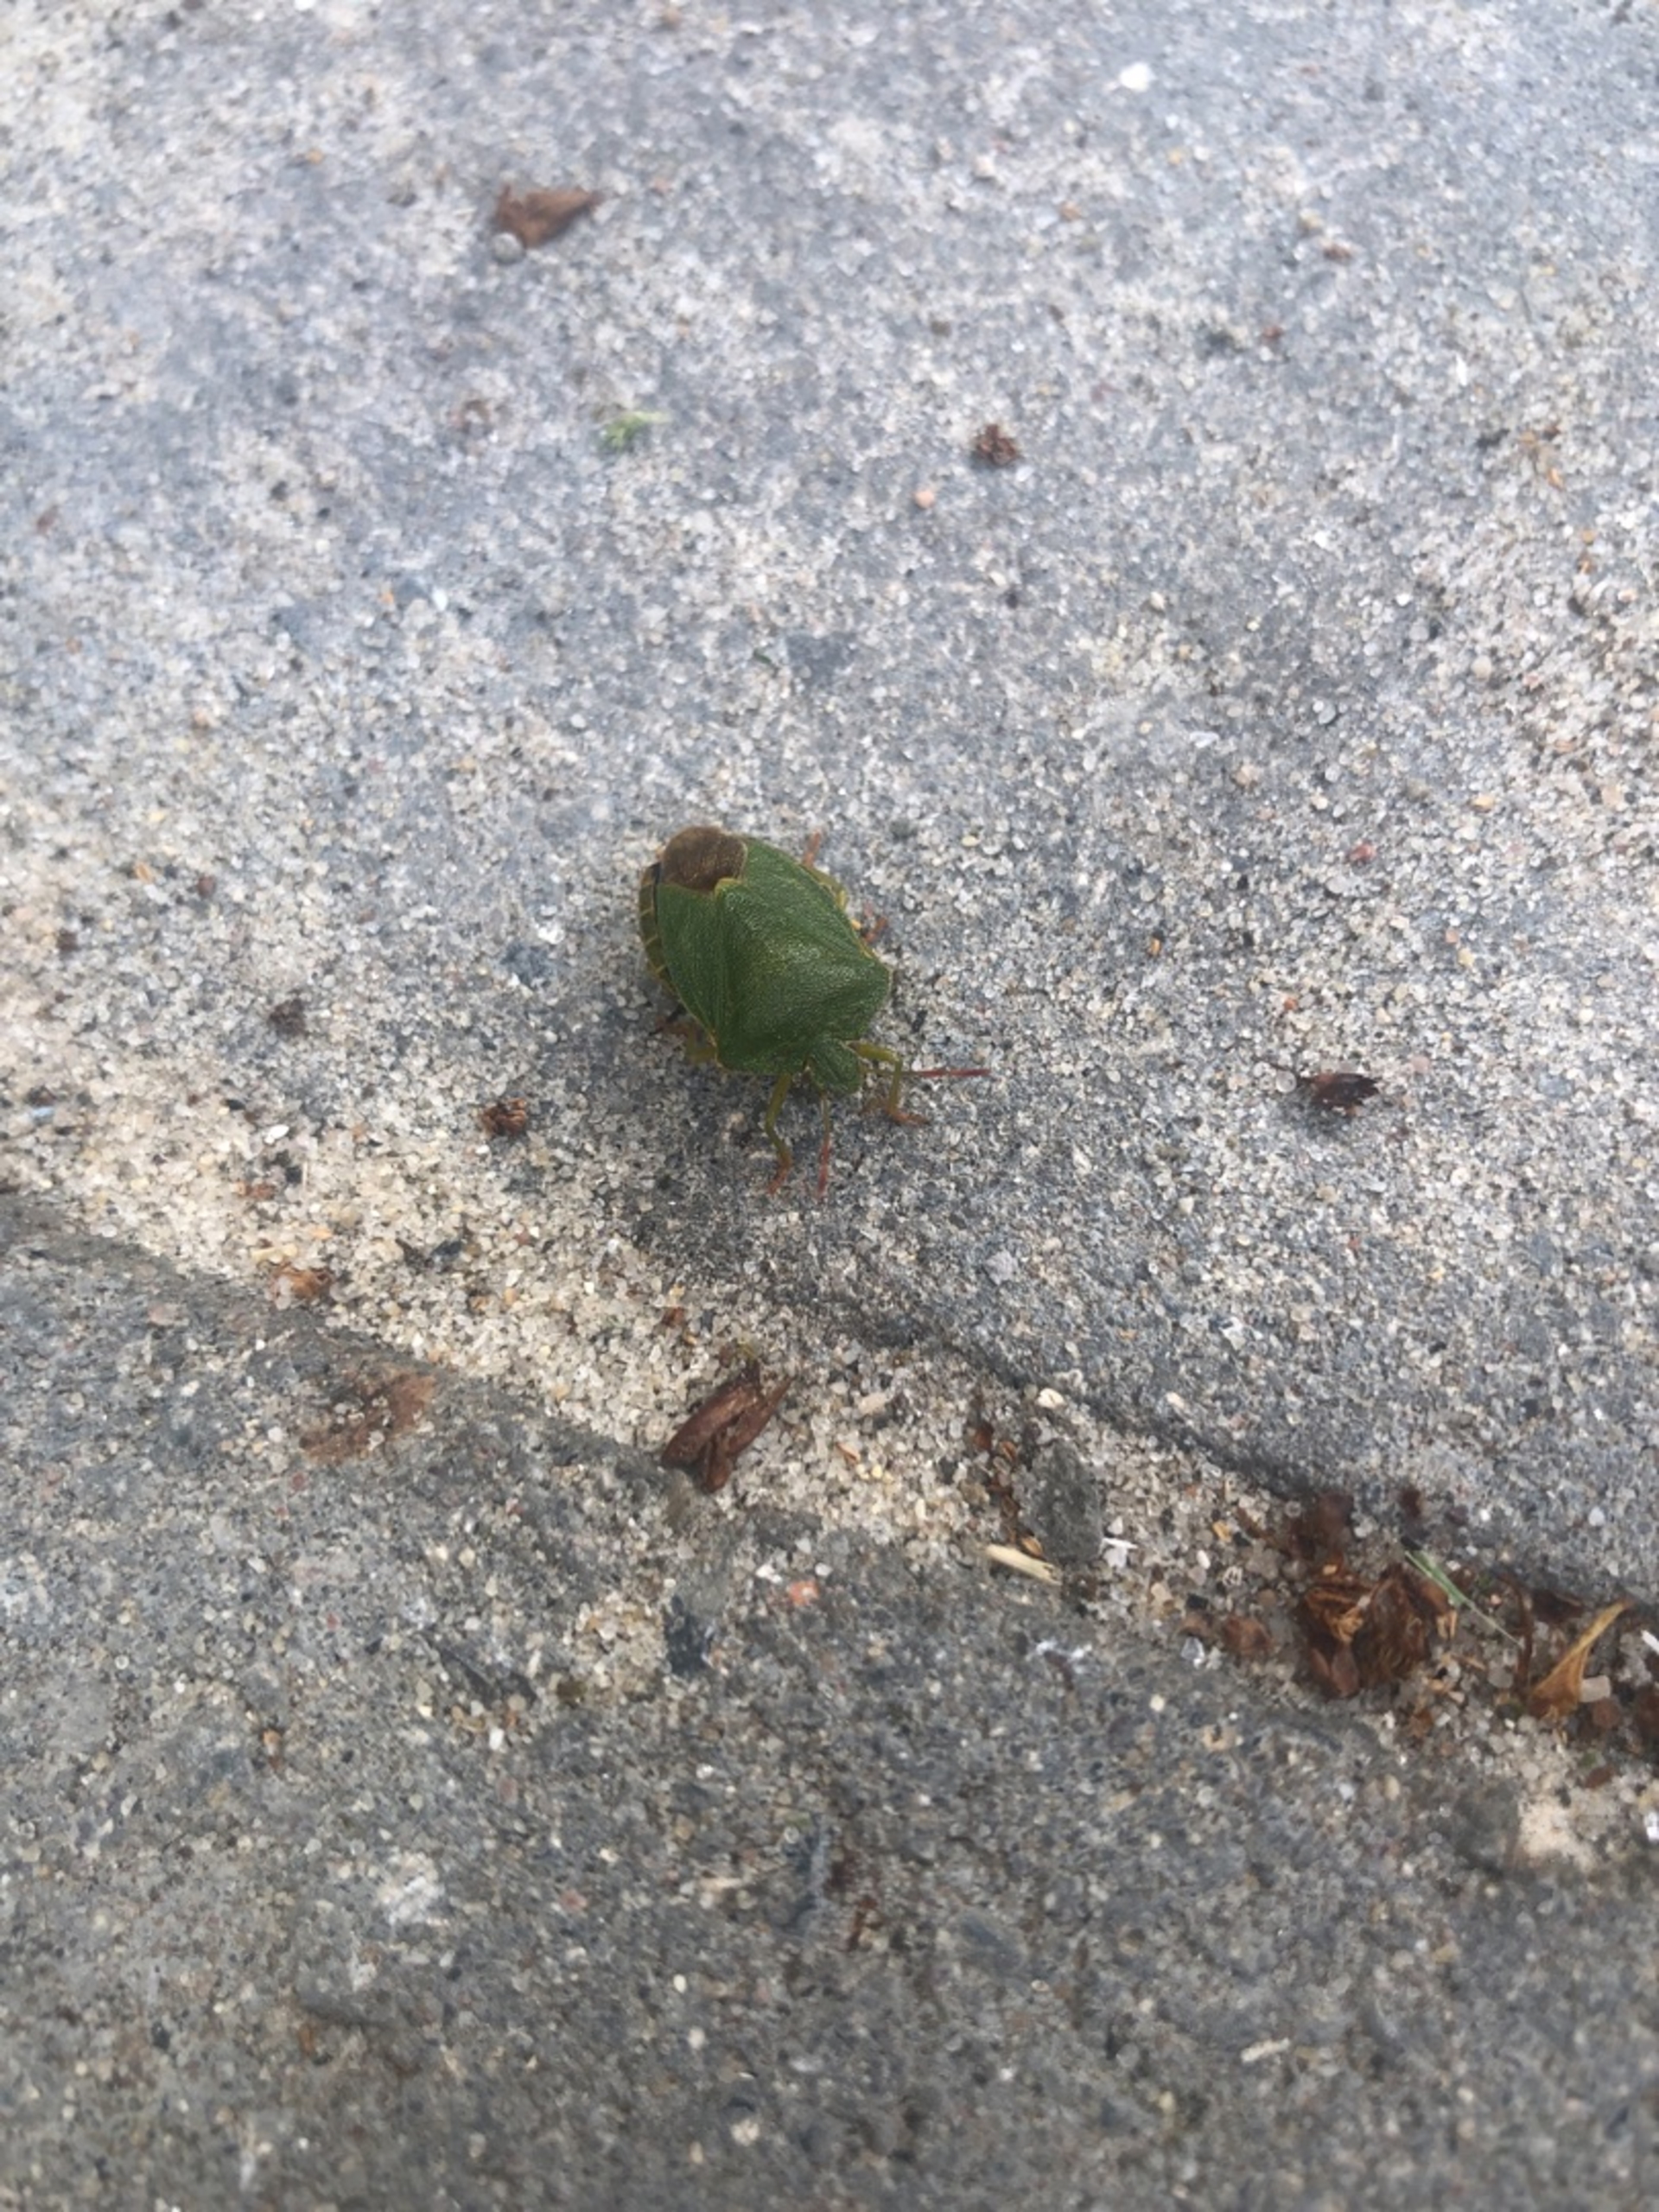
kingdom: Animalia
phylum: Arthropoda
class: Insecta
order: Hemiptera
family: Pentatomidae
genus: Palomena
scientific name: Palomena prasina
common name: Grøn bredtæge
